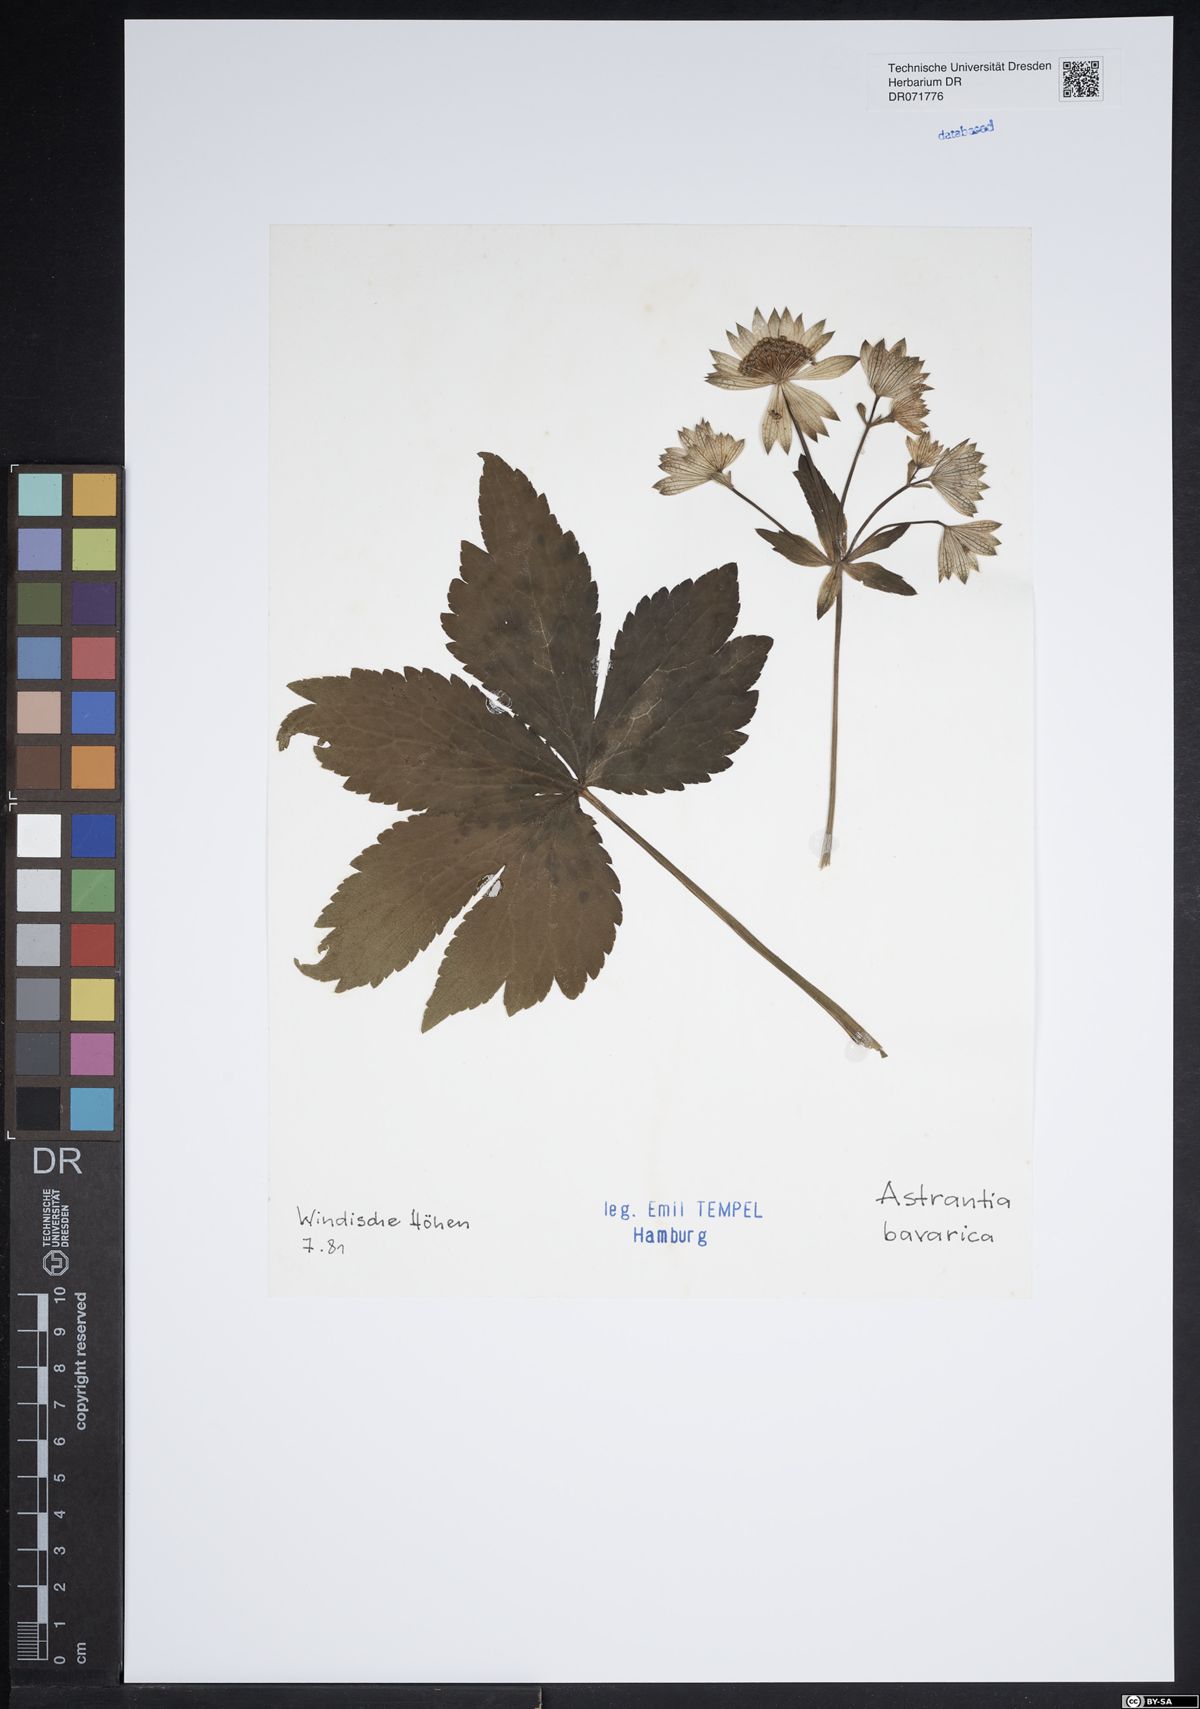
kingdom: Plantae
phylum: Tracheophyta
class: Magnoliopsida
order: Apiales
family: Apiaceae
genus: Astrantia
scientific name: Astrantia bavarica
